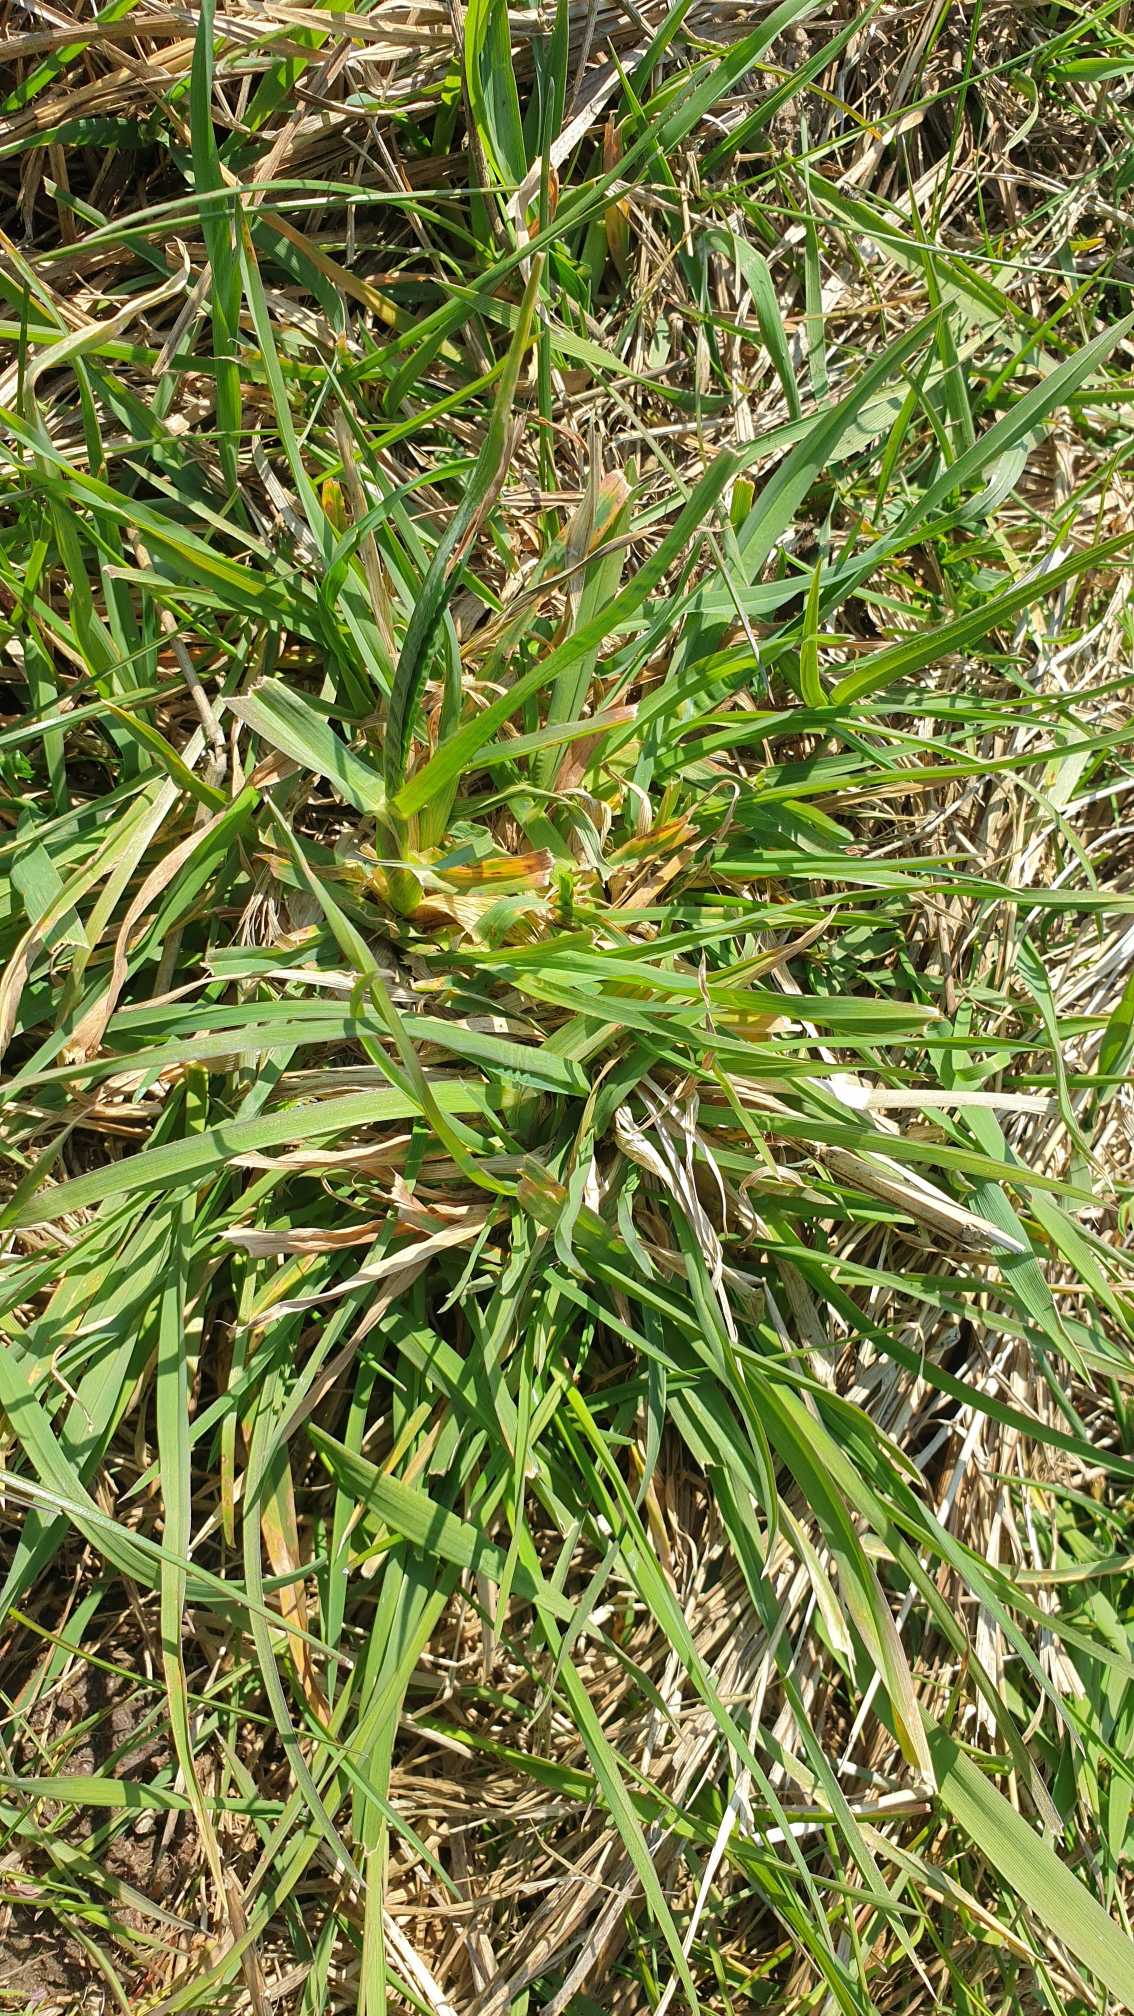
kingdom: Plantae
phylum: Tracheophyta
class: Liliopsida
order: Poales
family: Poaceae
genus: Dactylis
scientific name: Dactylis glomerata
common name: Almindelig hundegræs
